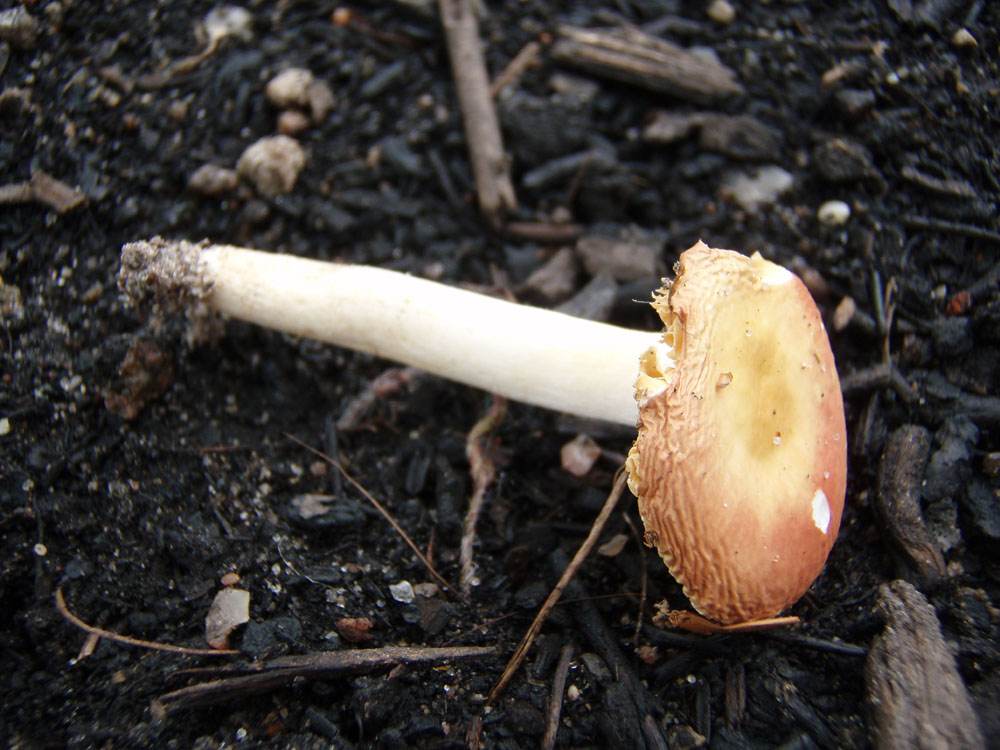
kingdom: Fungi
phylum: Basidiomycota
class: Agaricomycetes
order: Russulales
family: Russulaceae
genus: Russula
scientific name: Russula risigallina
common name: abrikos-skørhat
